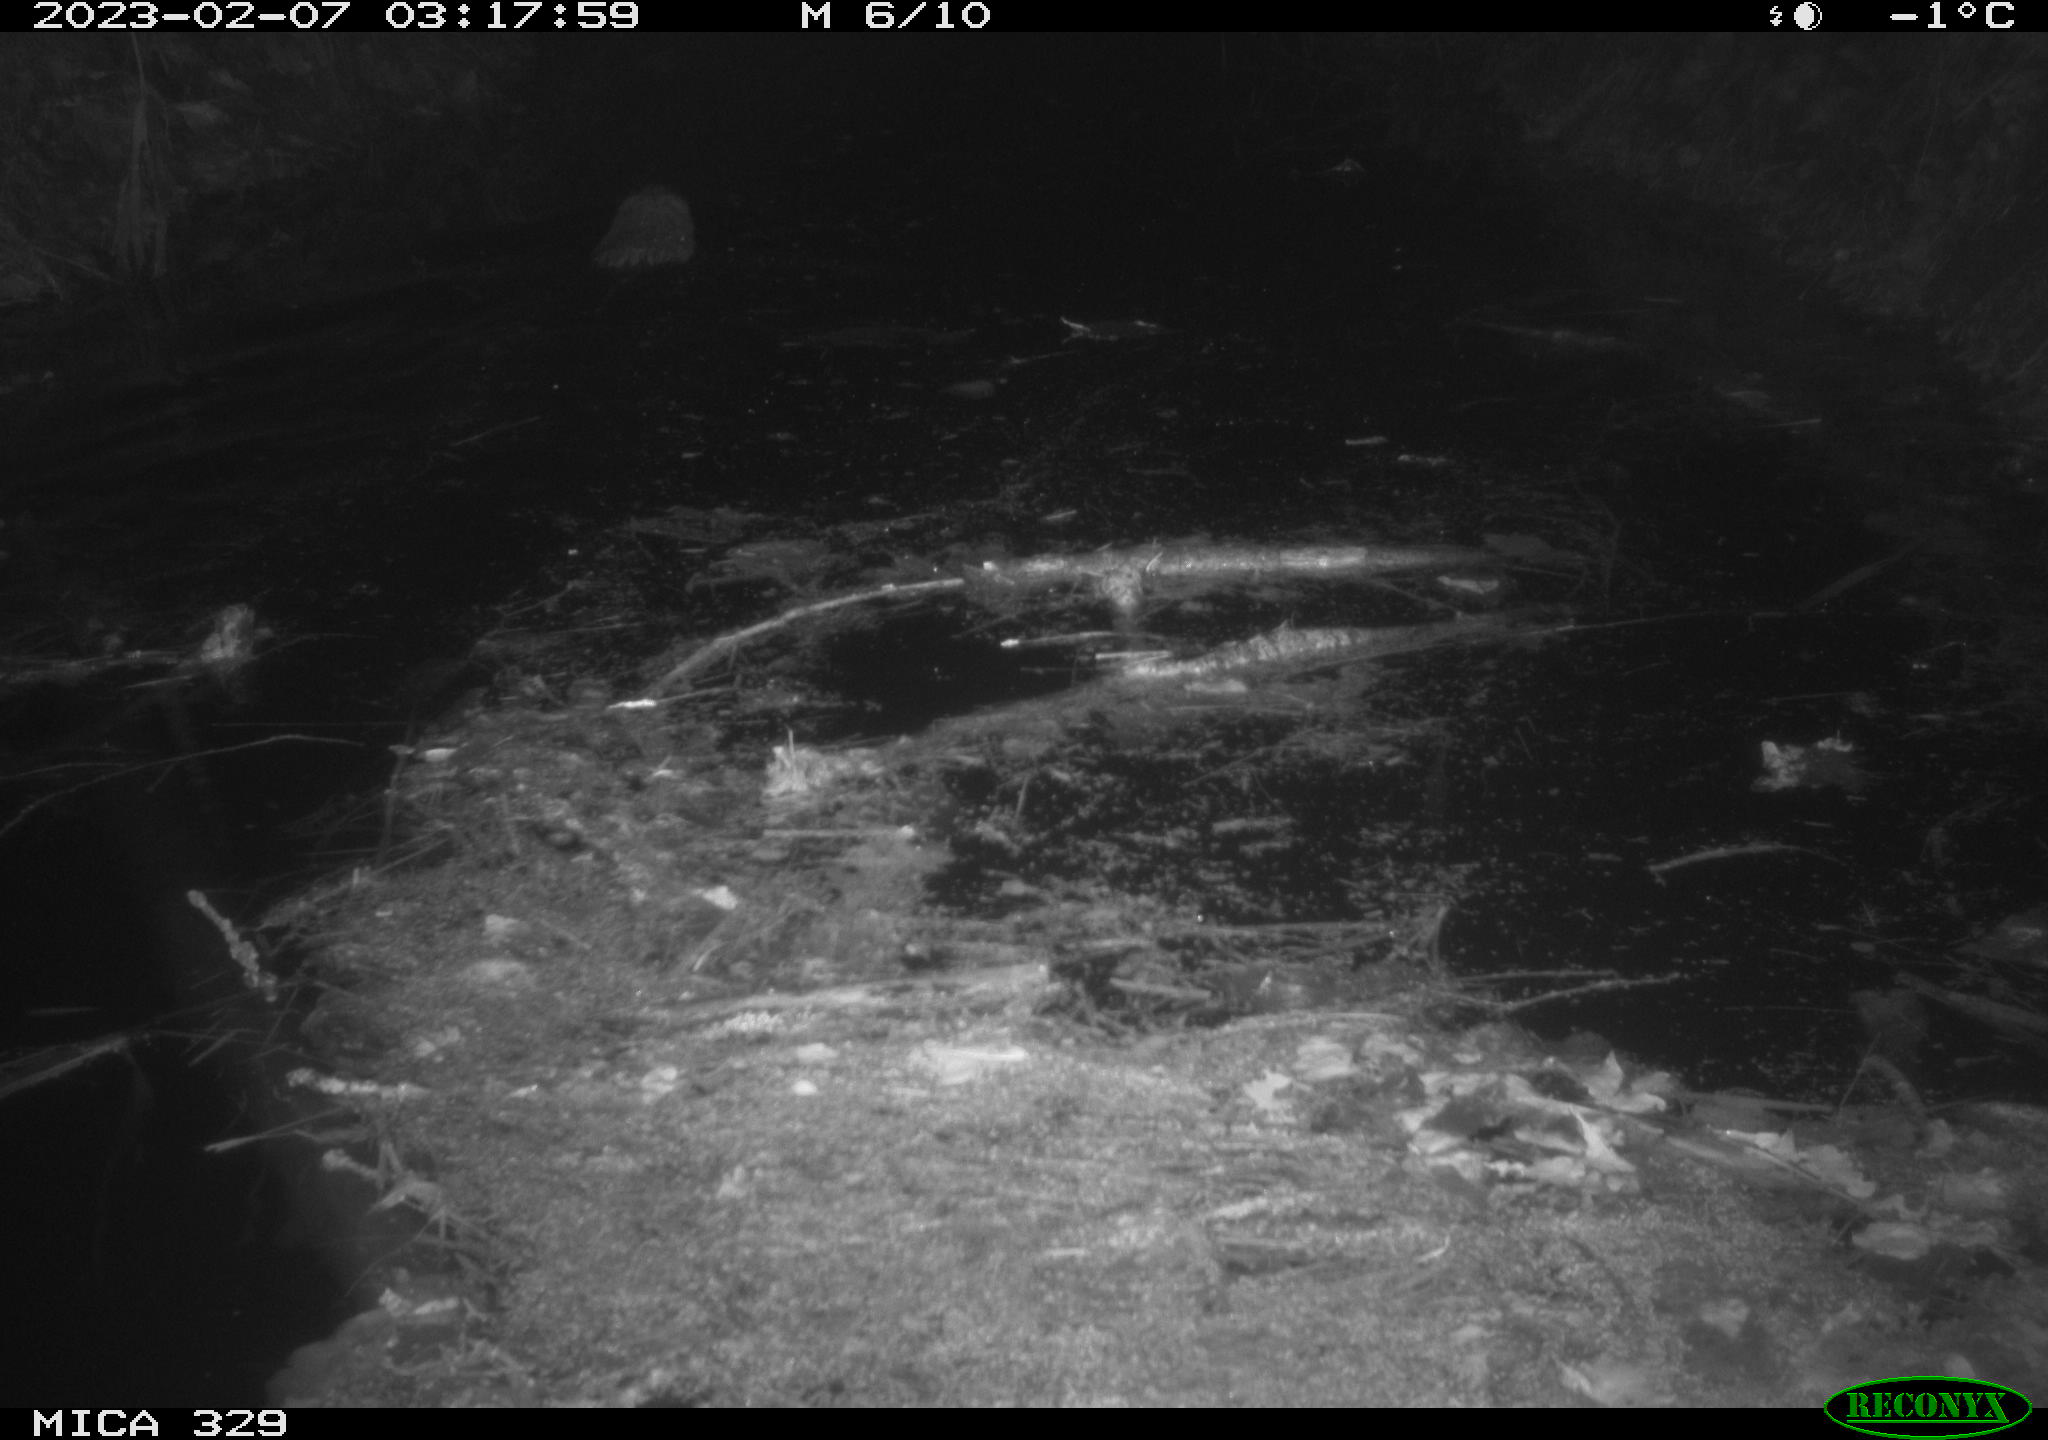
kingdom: Animalia
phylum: Chordata
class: Mammalia
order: Rodentia
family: Cricetidae
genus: Ondatra
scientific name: Ondatra zibethicus
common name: Muskrat
